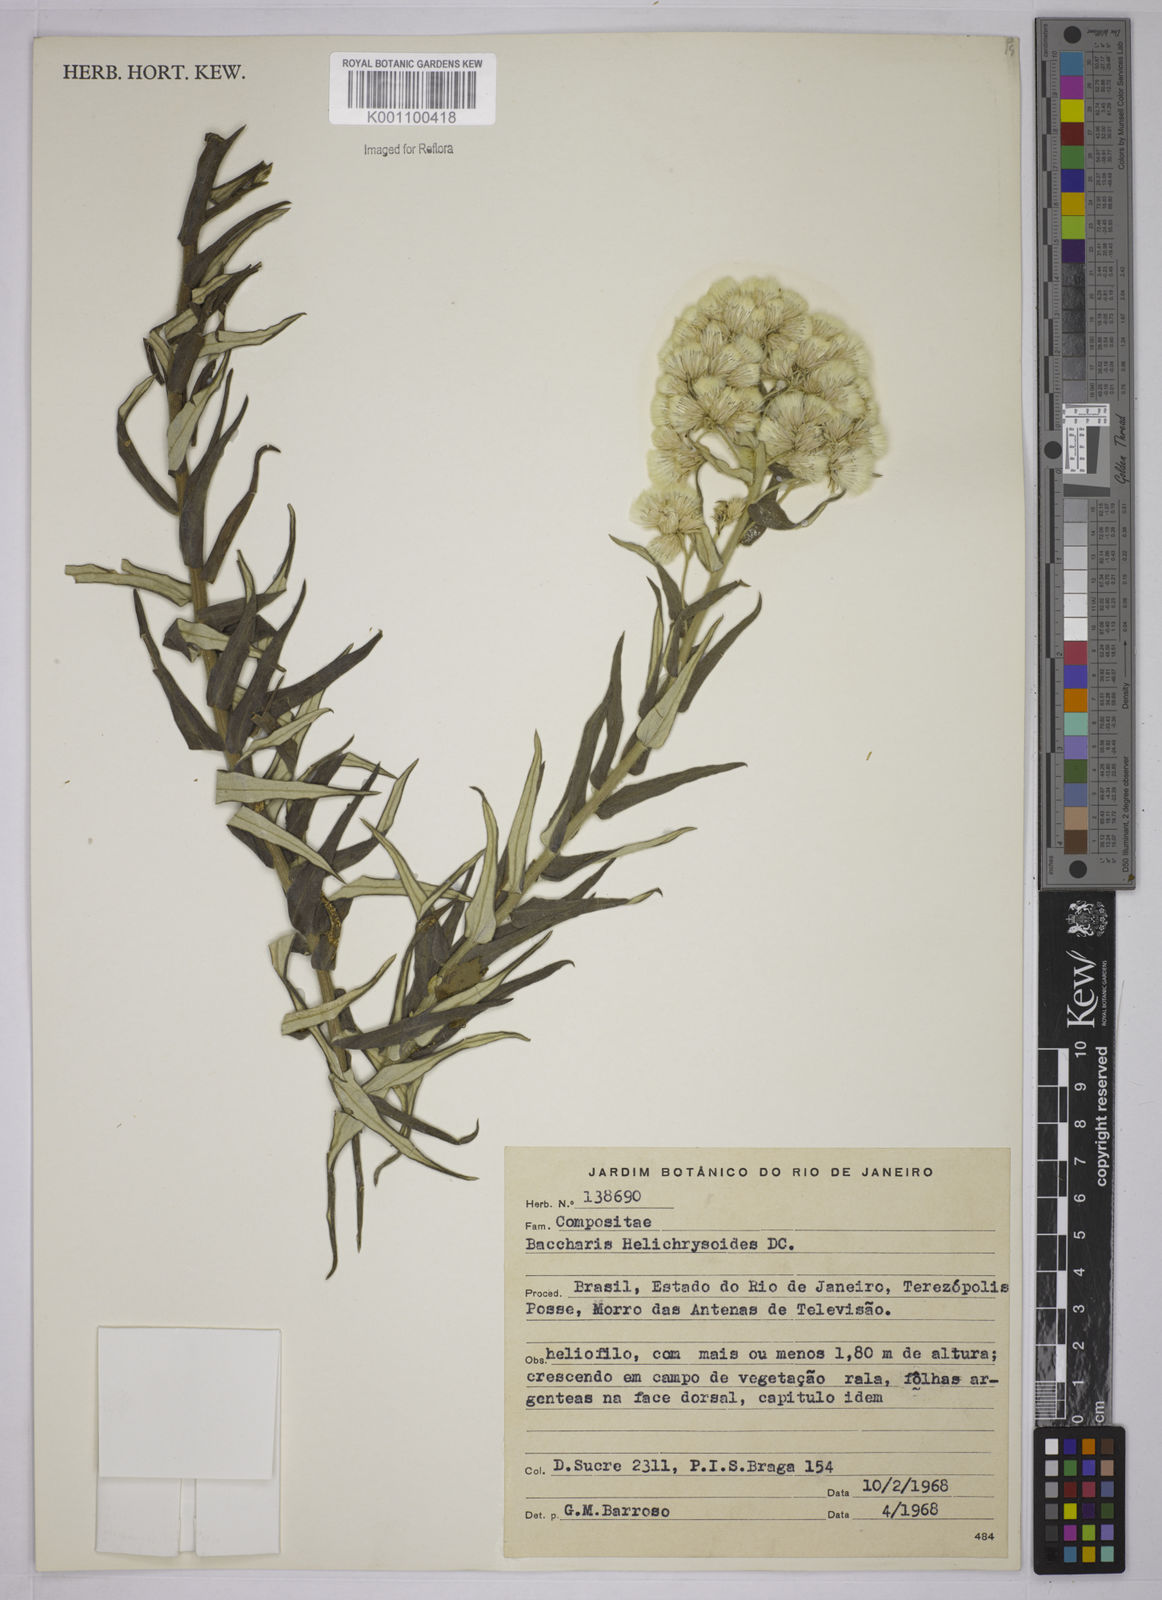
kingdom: Plantae
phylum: Tracheophyta
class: Magnoliopsida
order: Asterales
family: Asteraceae
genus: Baccharis
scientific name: Baccharis helichrysoides
